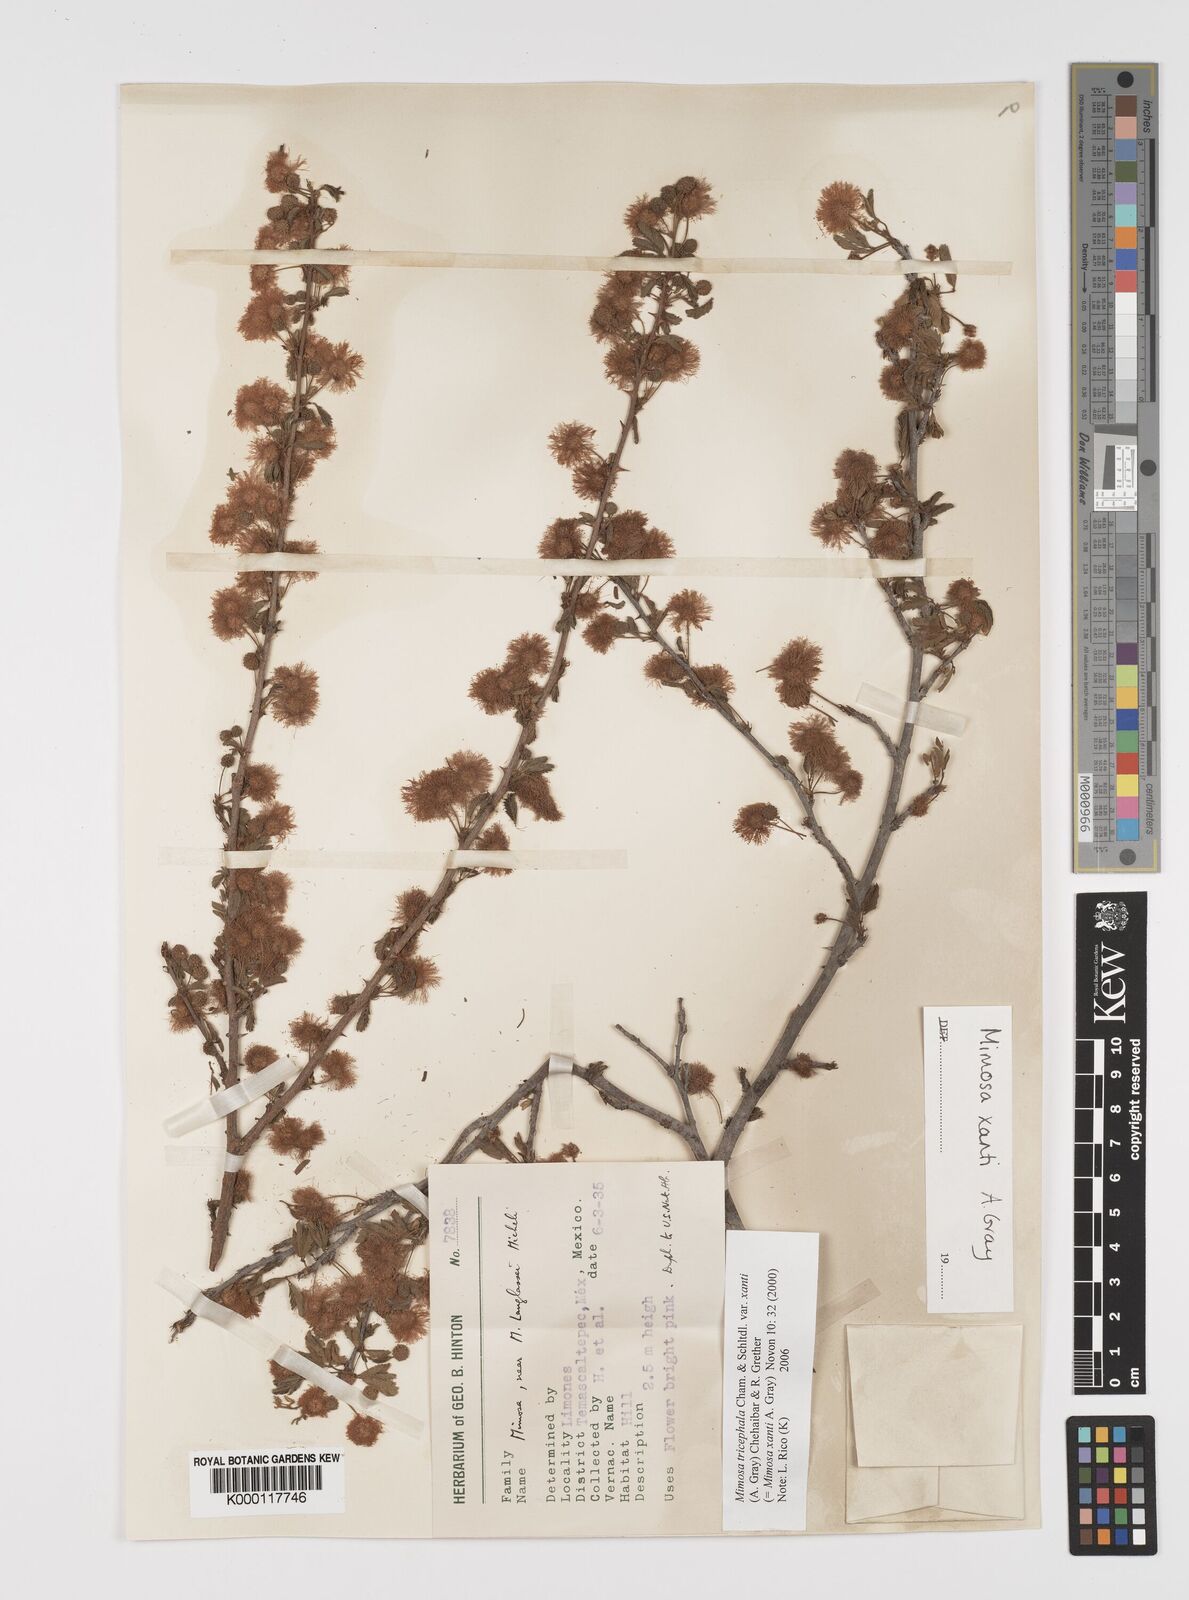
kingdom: Plantae
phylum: Tracheophyta
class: Magnoliopsida
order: Fabales
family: Fabaceae
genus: Mimosa
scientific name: Mimosa tricephala
